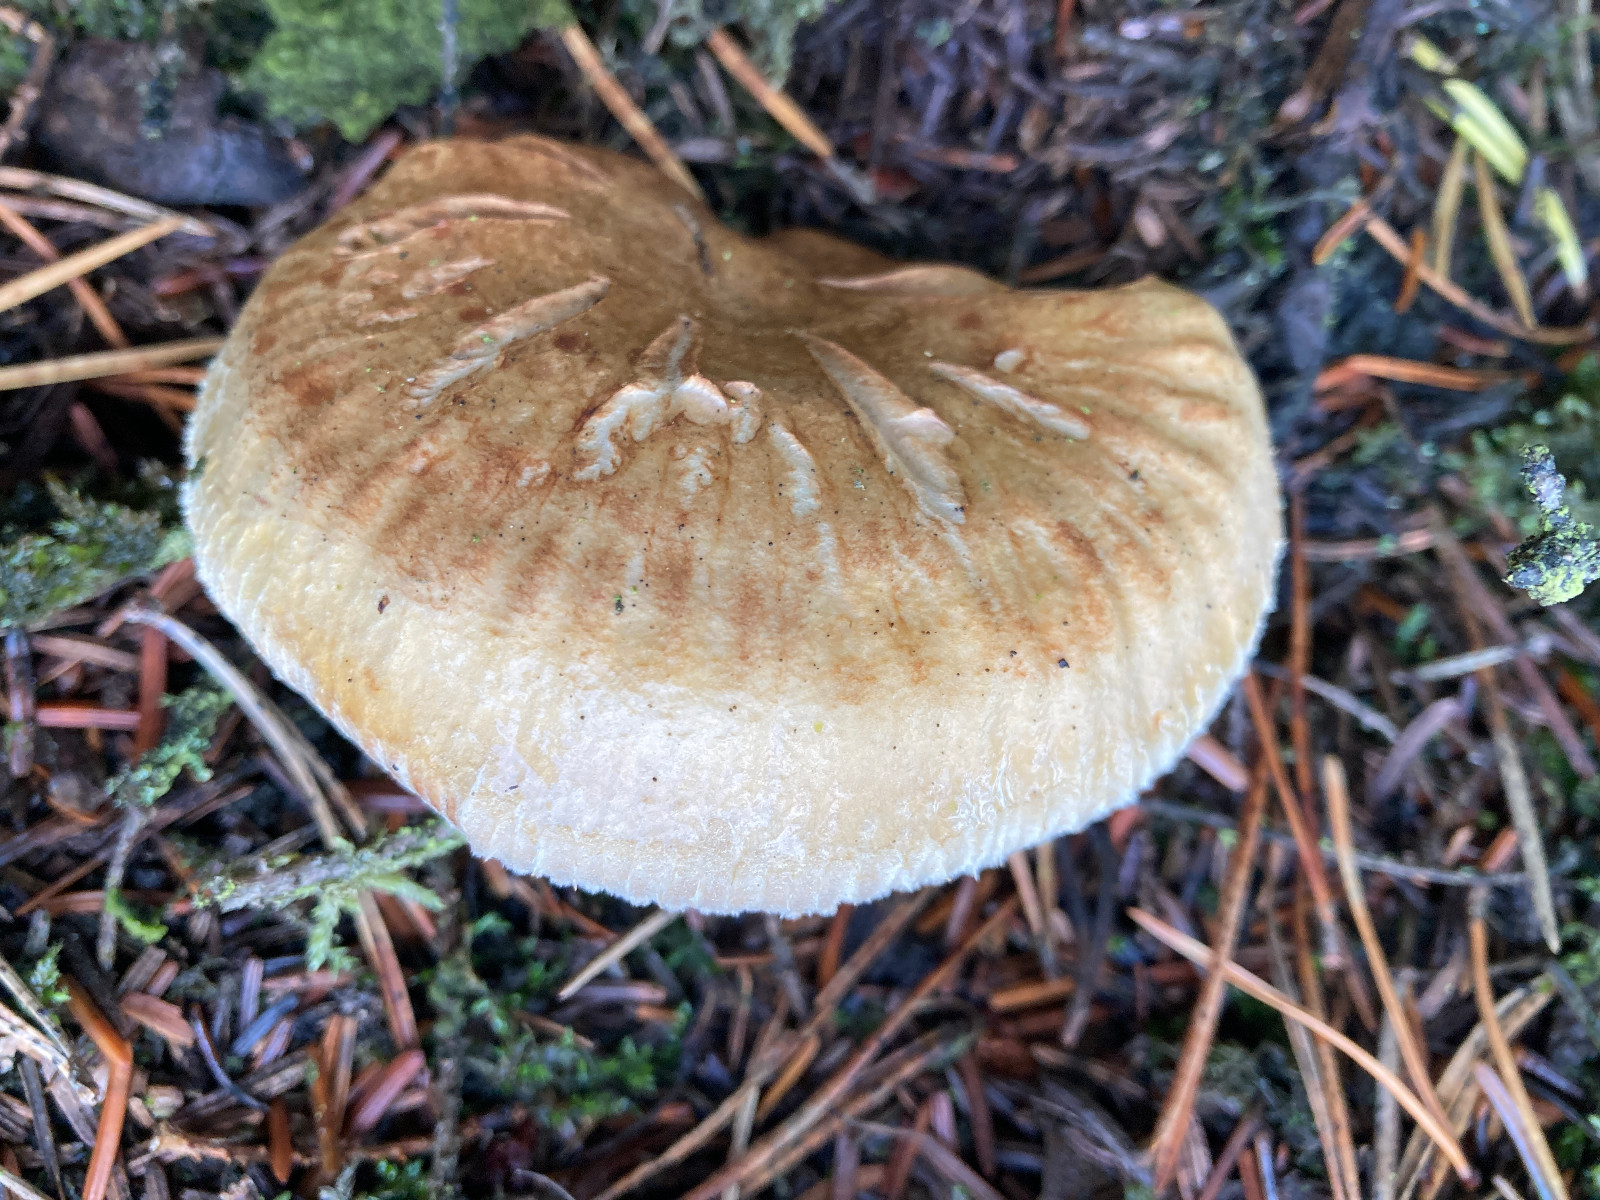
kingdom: Fungi
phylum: Basidiomycota
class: Agaricomycetes
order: Agaricales
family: Tricholomataceae
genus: Tricholoma
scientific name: Tricholoma focale
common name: halsbånd-ridderhat
